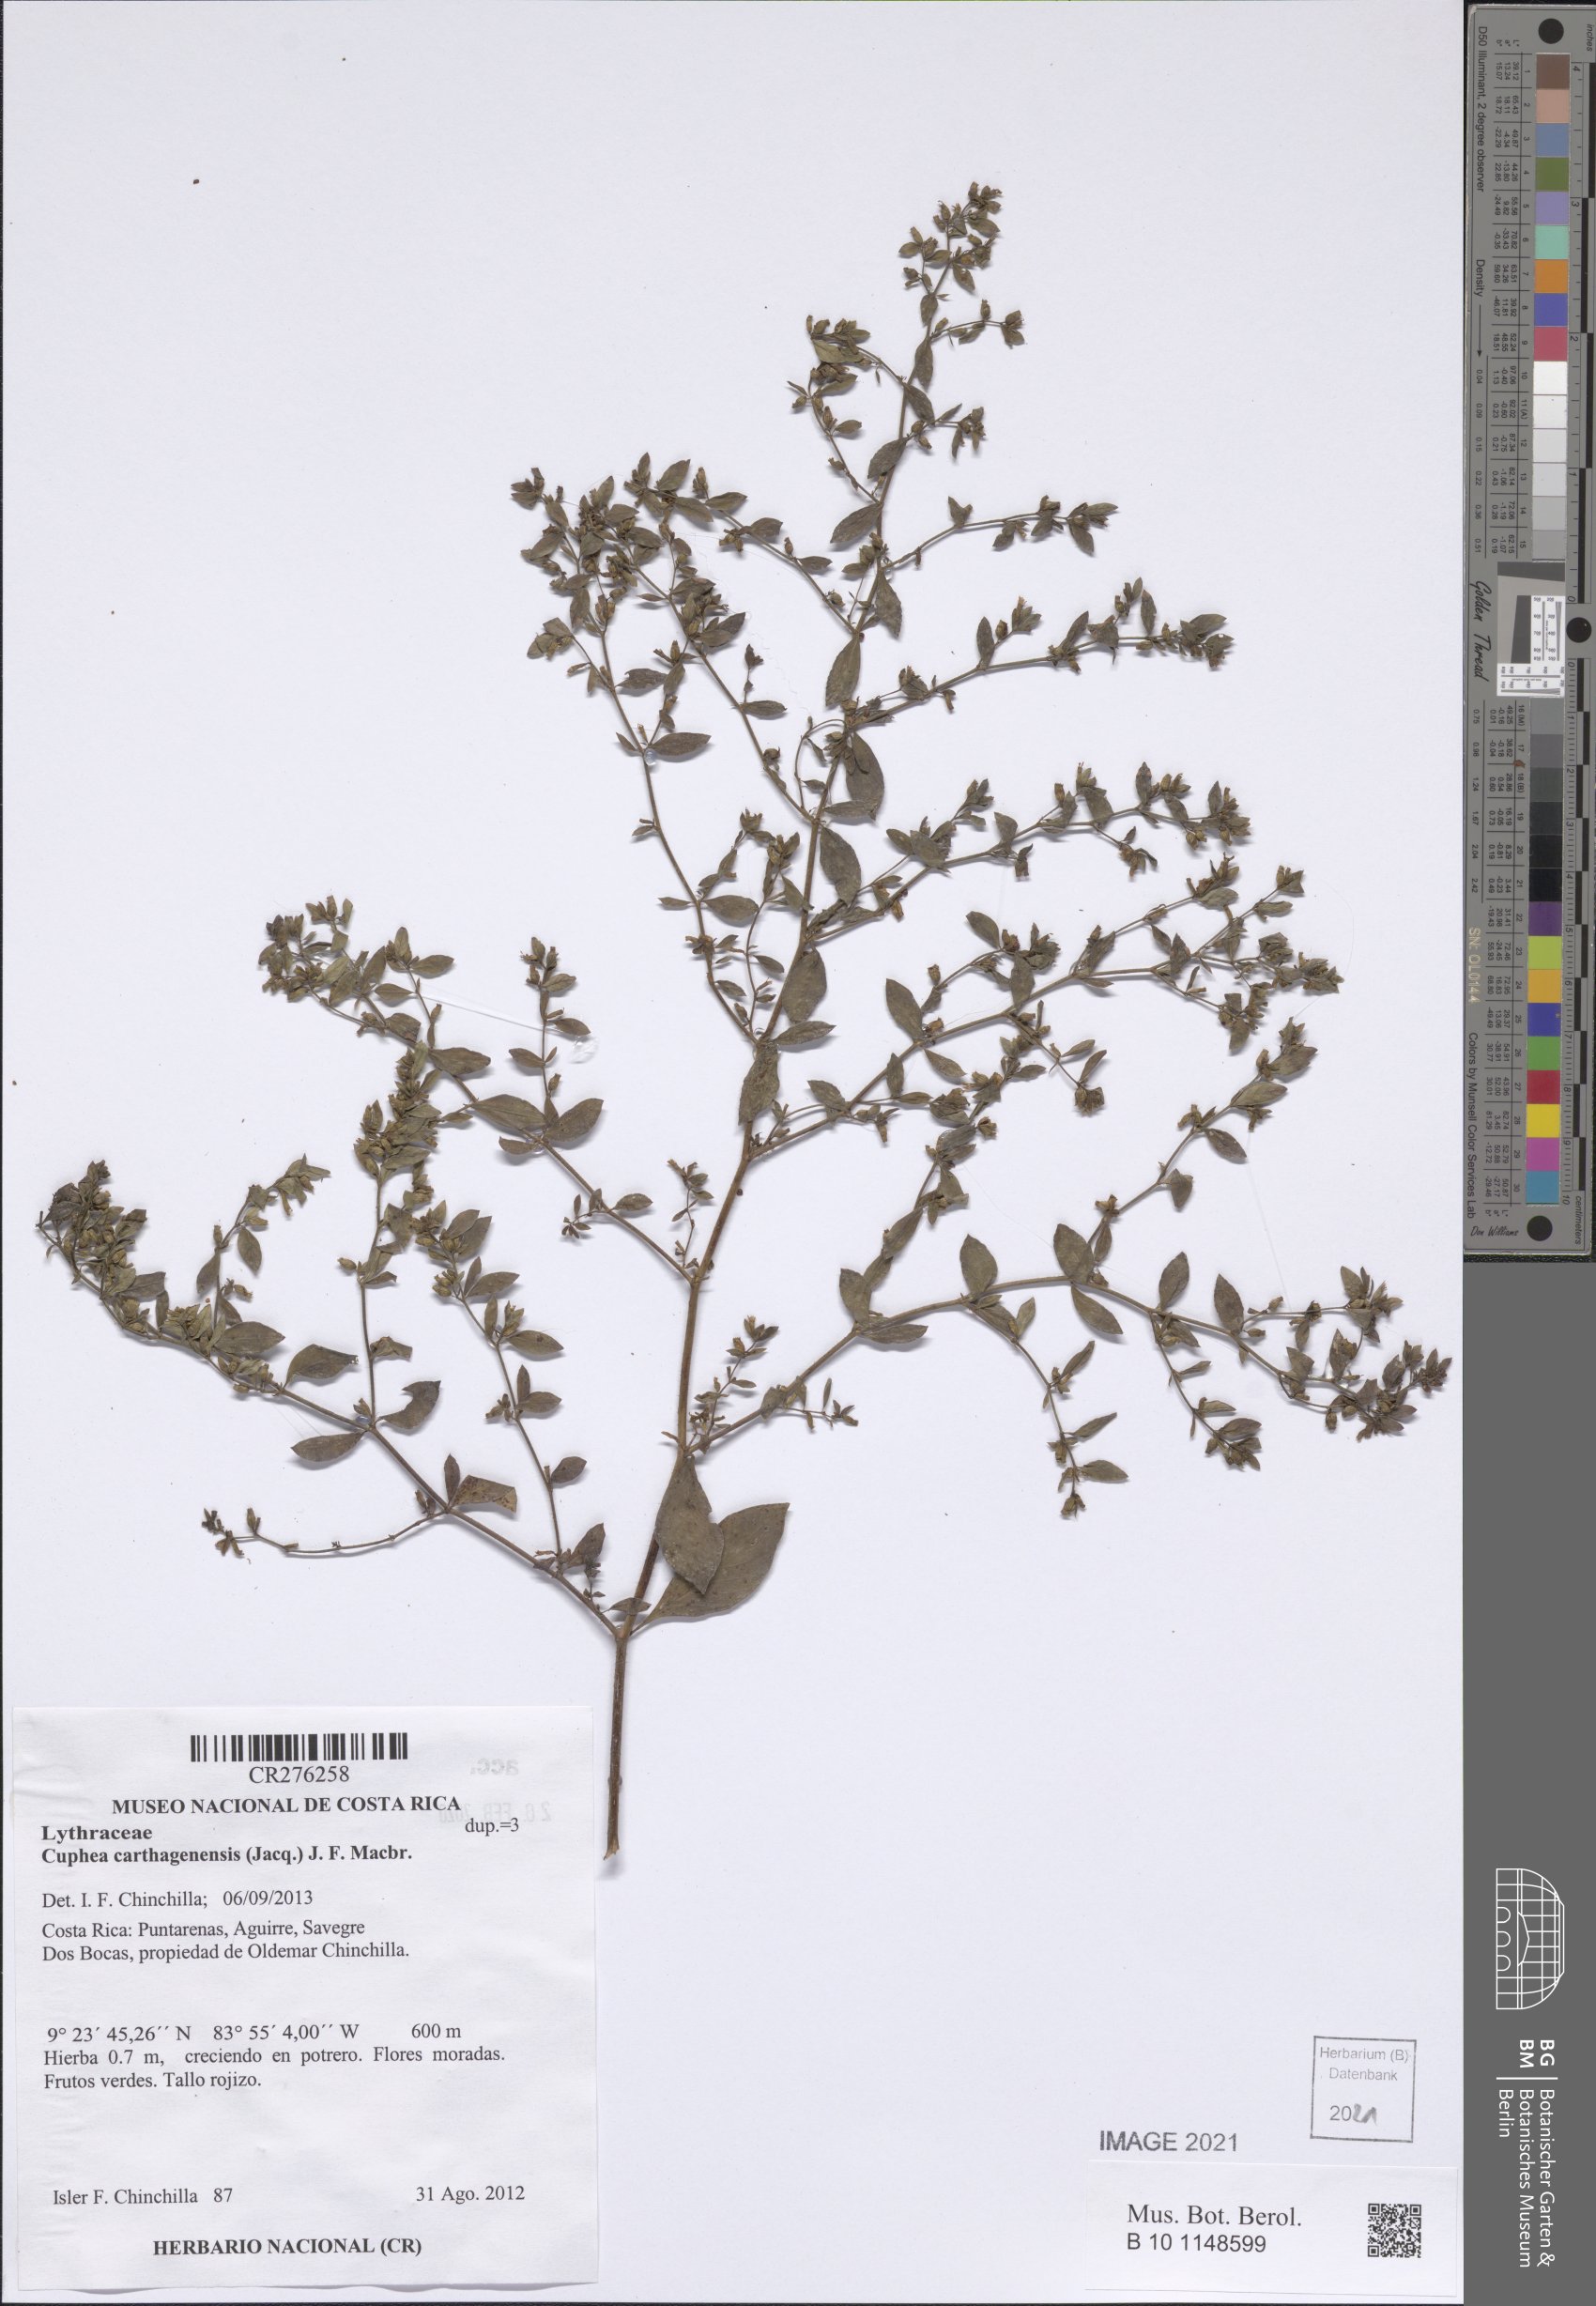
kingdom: Plantae
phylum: Tracheophyta
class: Magnoliopsida
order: Myrtales
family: Lythraceae
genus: Cuphea
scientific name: Cuphea carthagenensis
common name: Colombian waxweed
